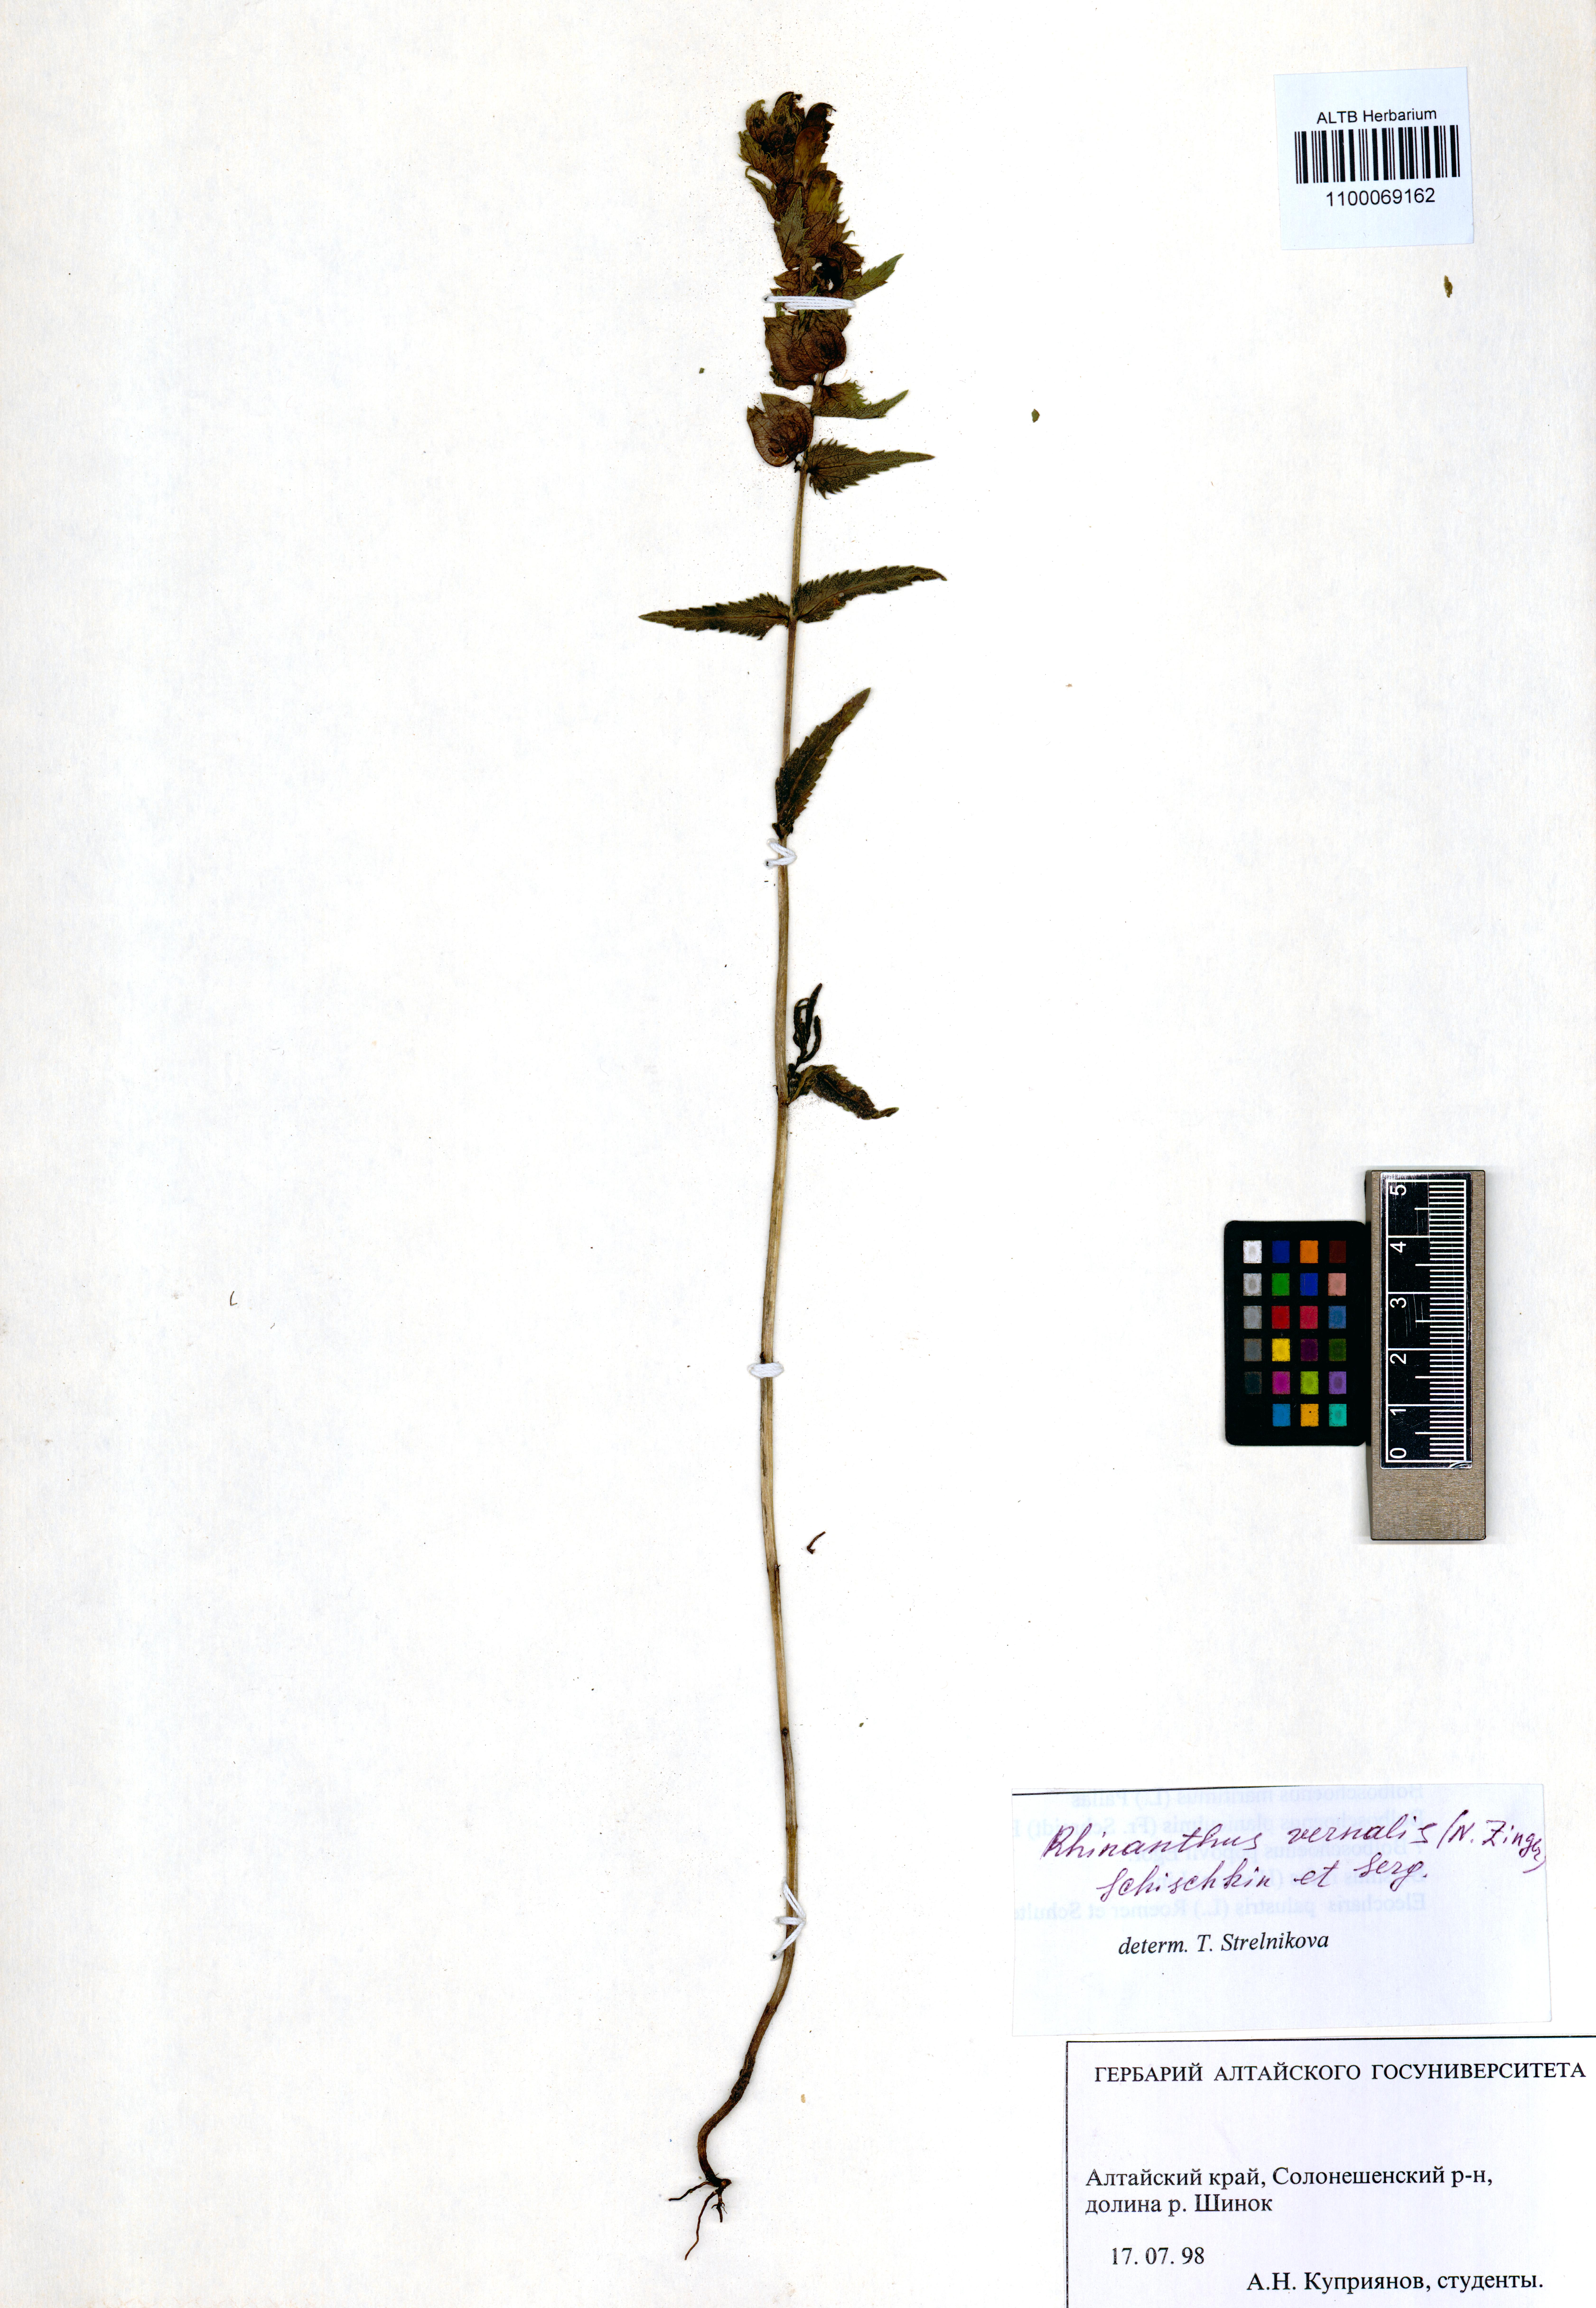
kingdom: Plantae
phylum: Tracheophyta
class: Magnoliopsida
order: Lamiales
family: Orobanchaceae
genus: Rhinanthus
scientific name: Rhinanthus serotinus
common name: Late-flowering yellow rattle
